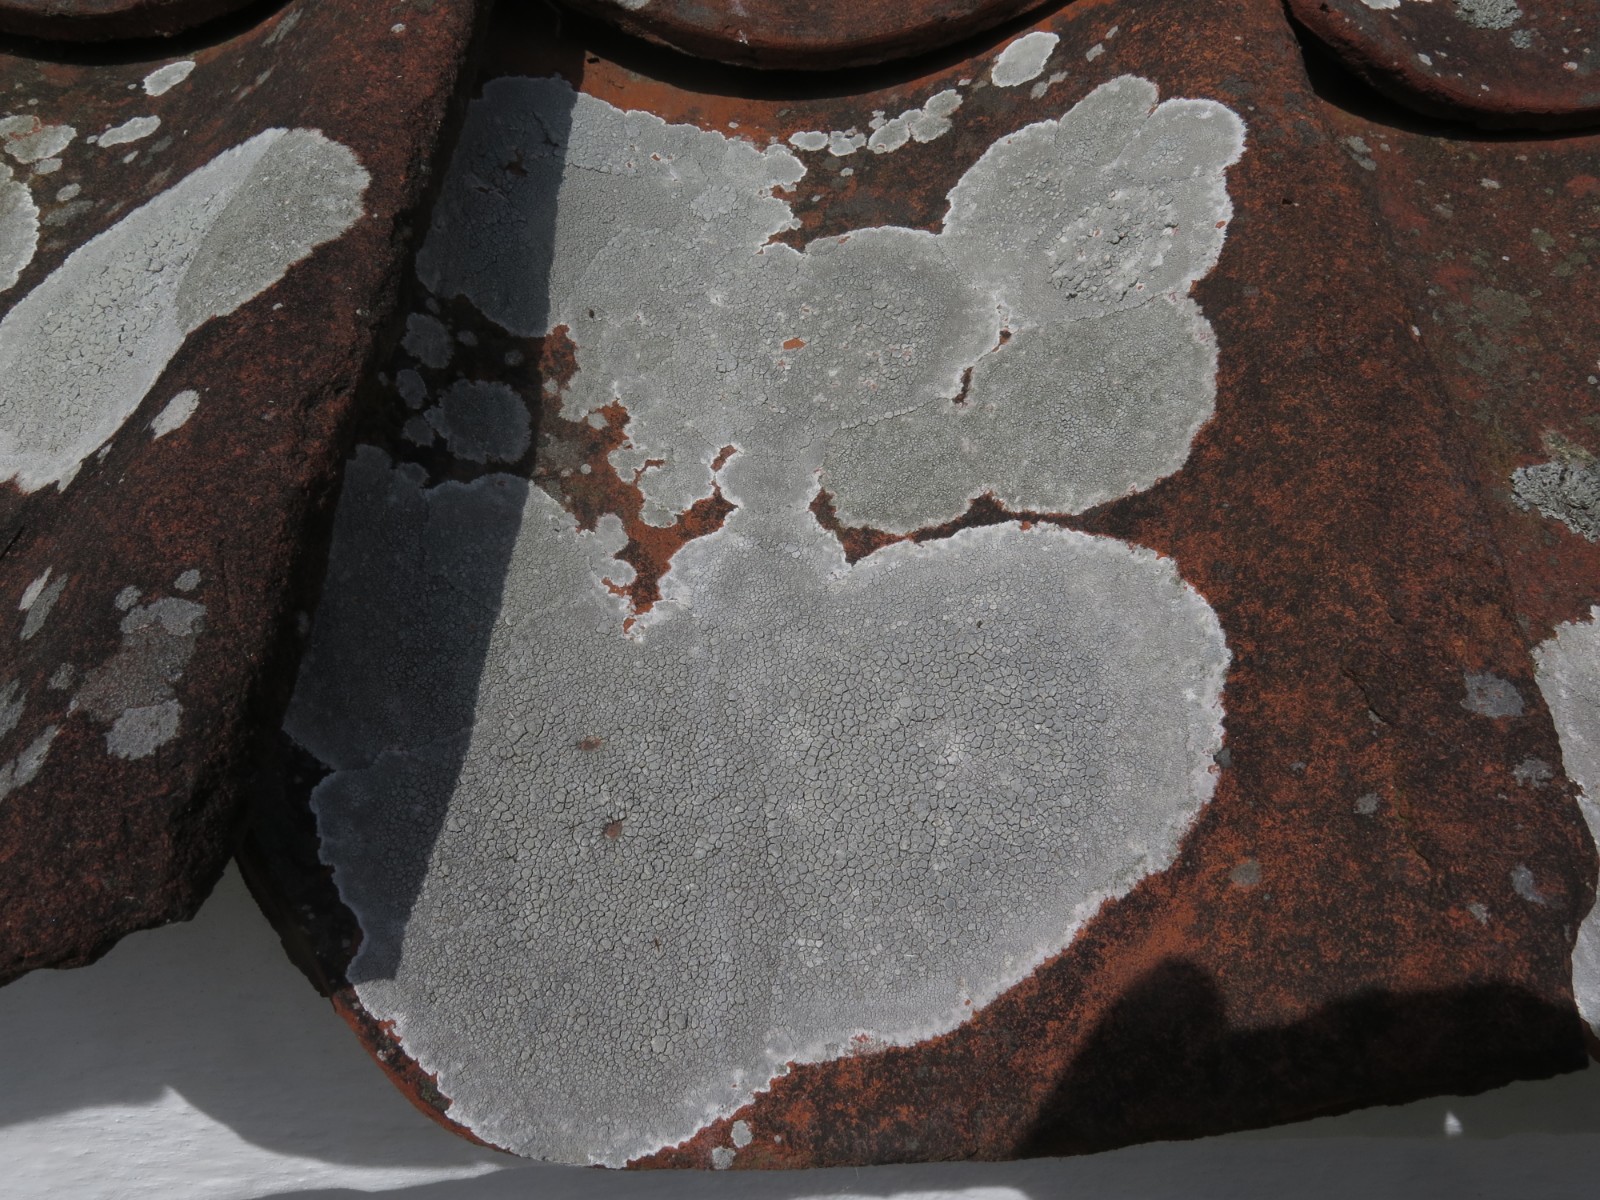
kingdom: Fungi
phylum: Ascomycota
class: Lecanoromycetes
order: Lecanorales
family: Lecanoraceae
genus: Glaucomaria
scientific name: Glaucomaria rupicola
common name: stengærde-kantskivelav
